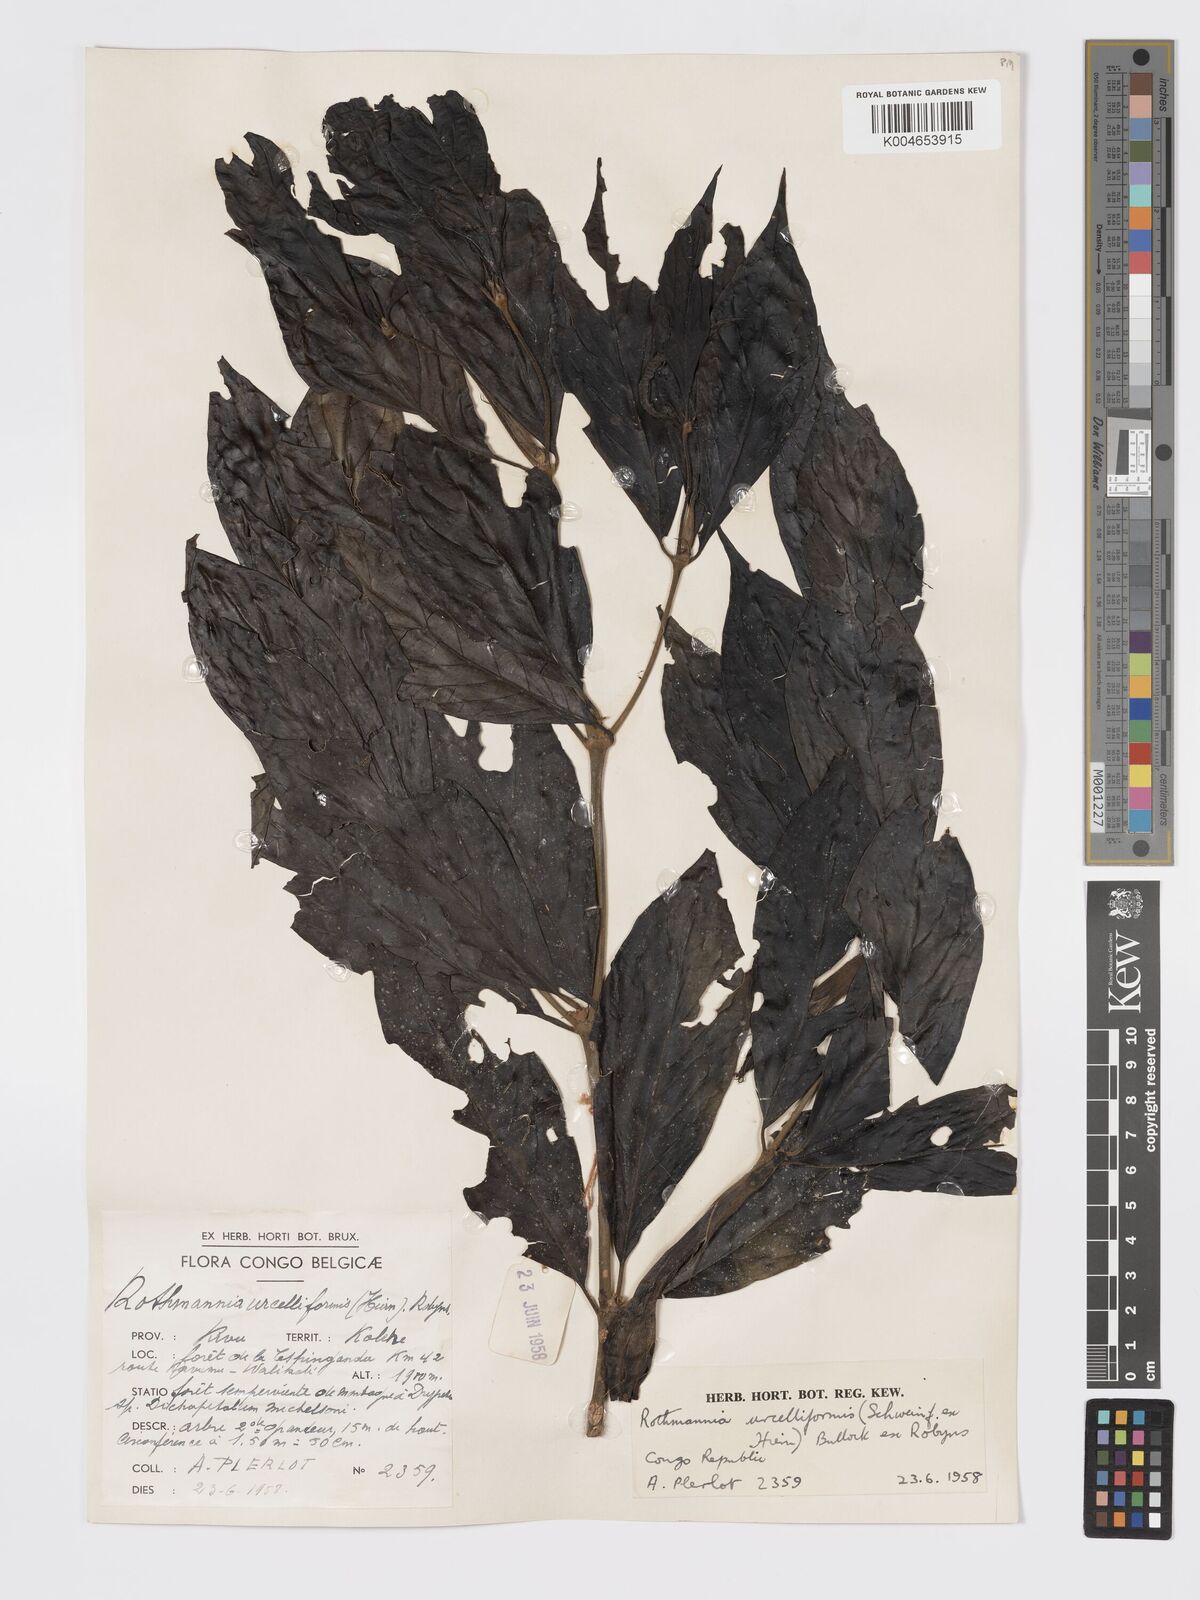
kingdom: Plantae
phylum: Tracheophyta
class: Magnoliopsida
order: Gentianales
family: Rubiaceae
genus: Rothmannia
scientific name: Rothmannia urcelliformis
